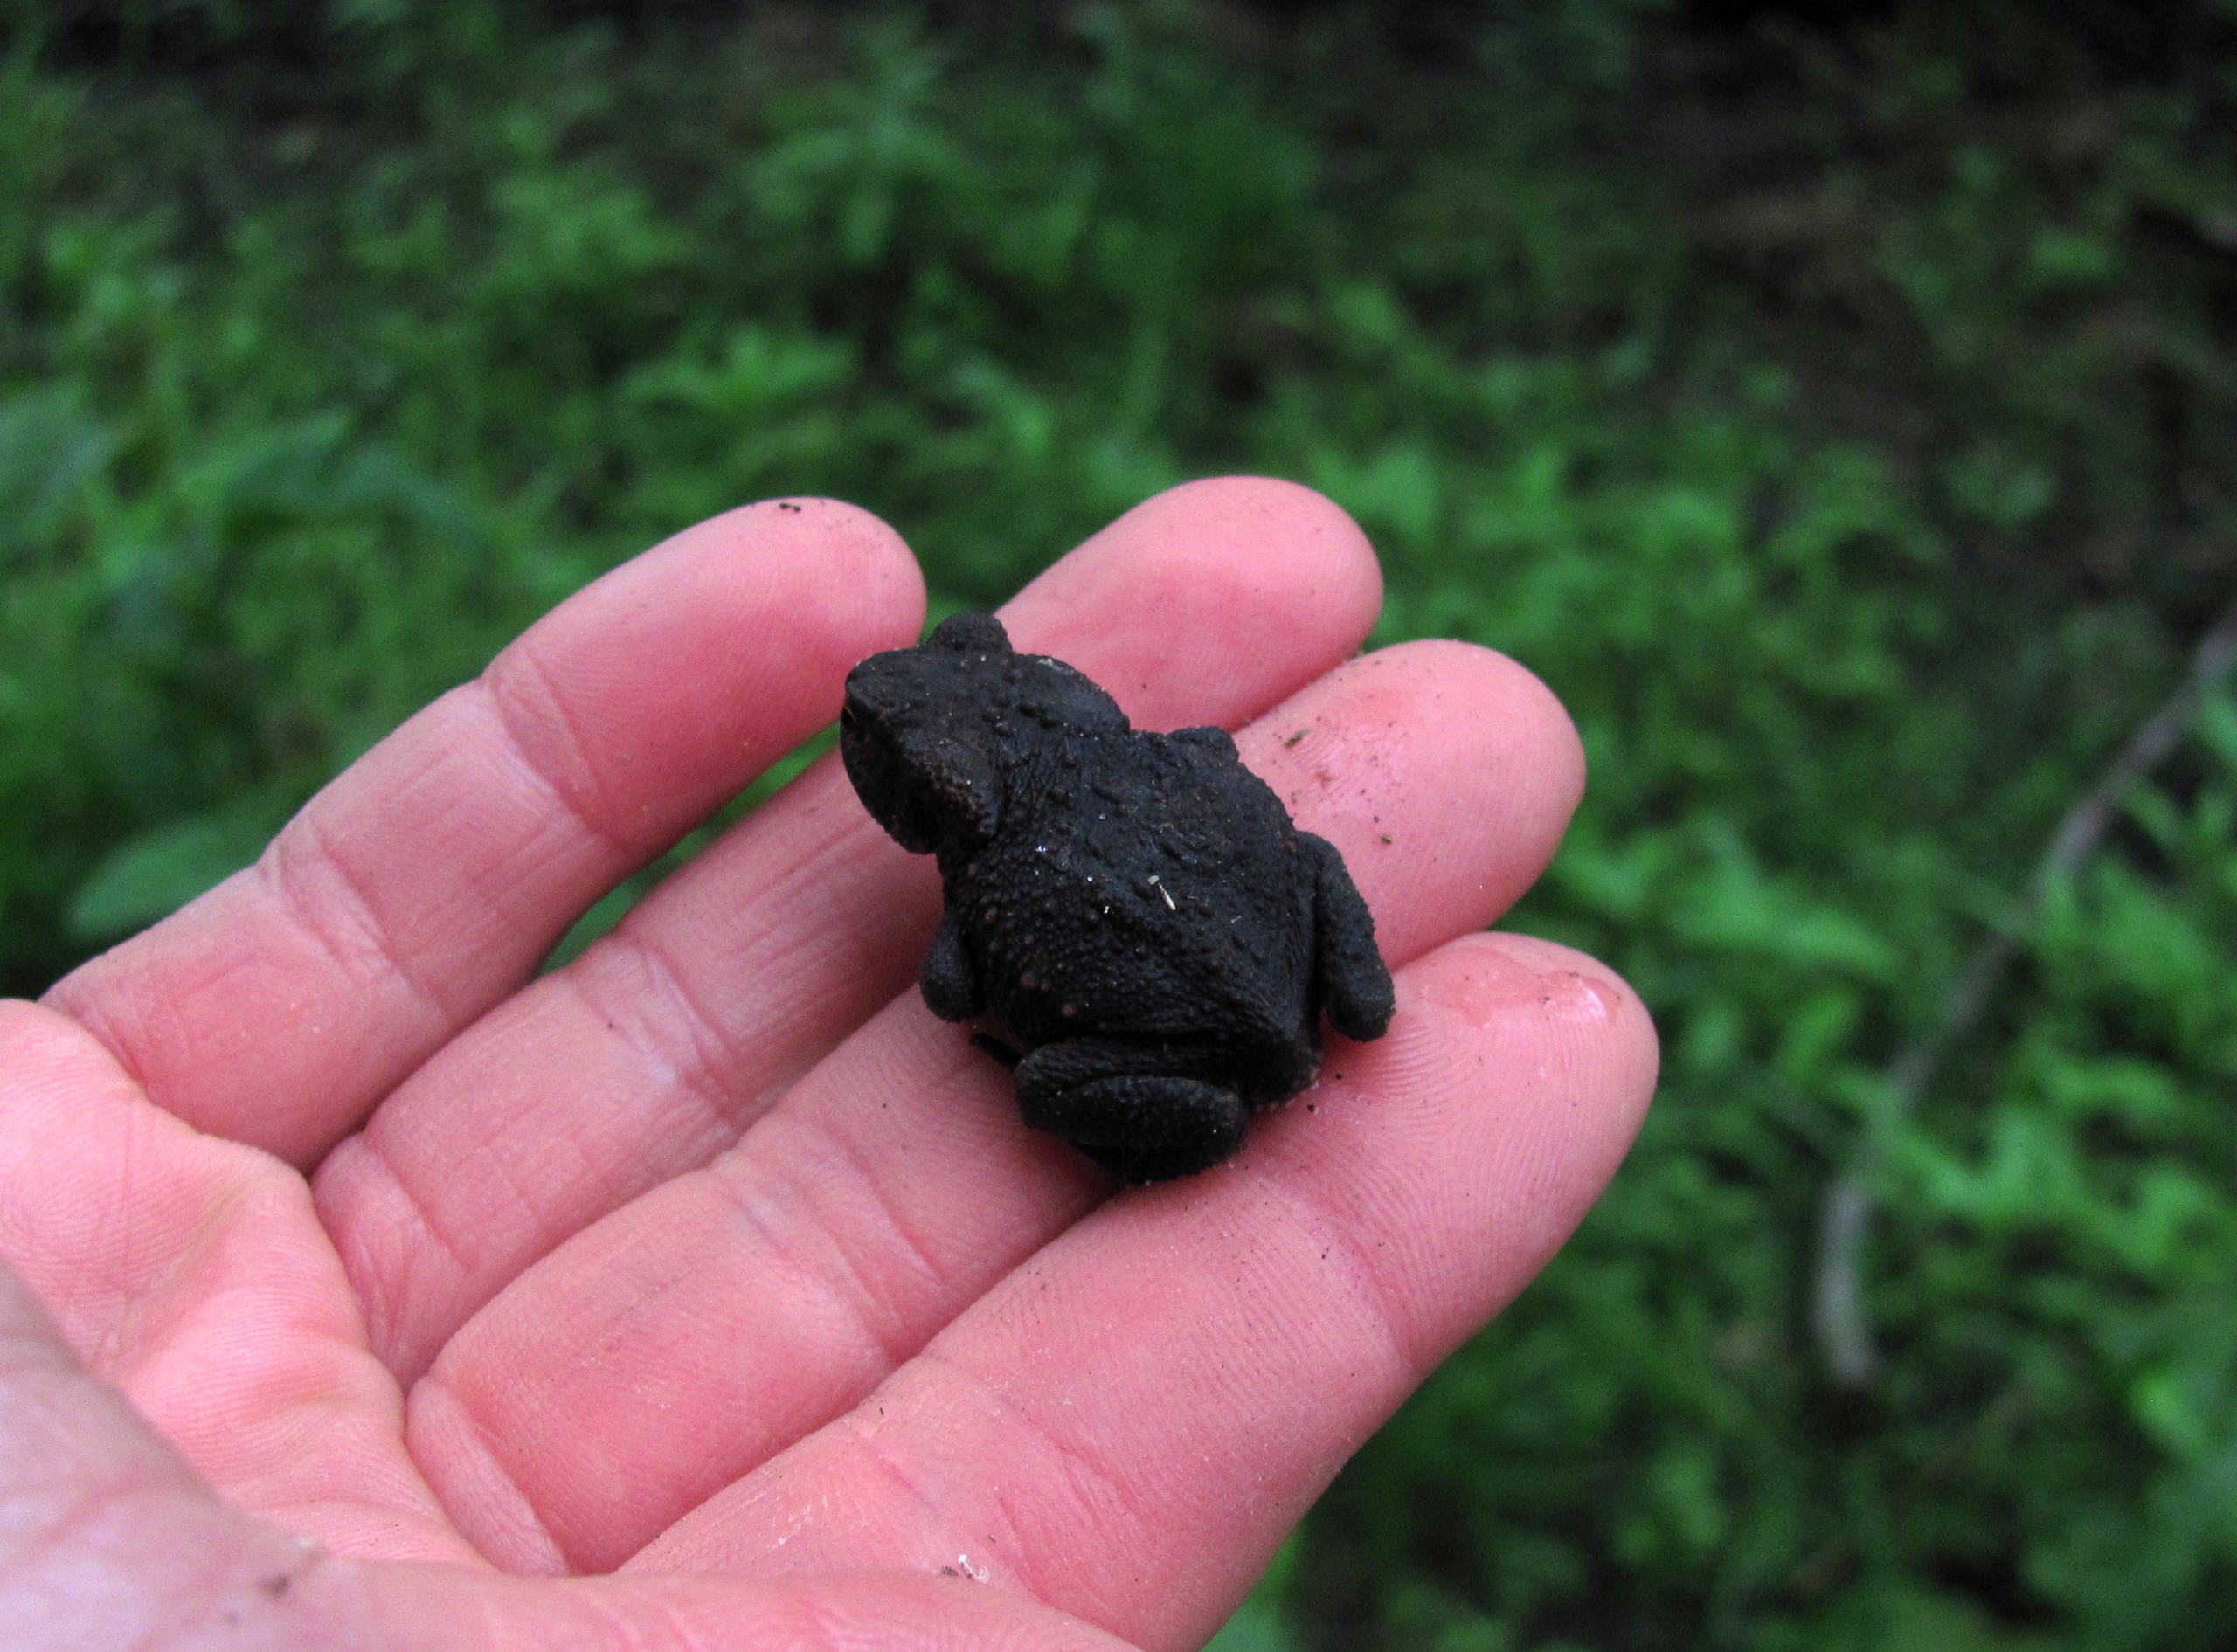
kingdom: Animalia
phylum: Chordata
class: Amphibia
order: Anura
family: Bufonidae
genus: Bufo
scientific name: Bufo bufo
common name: Skrubtudse
